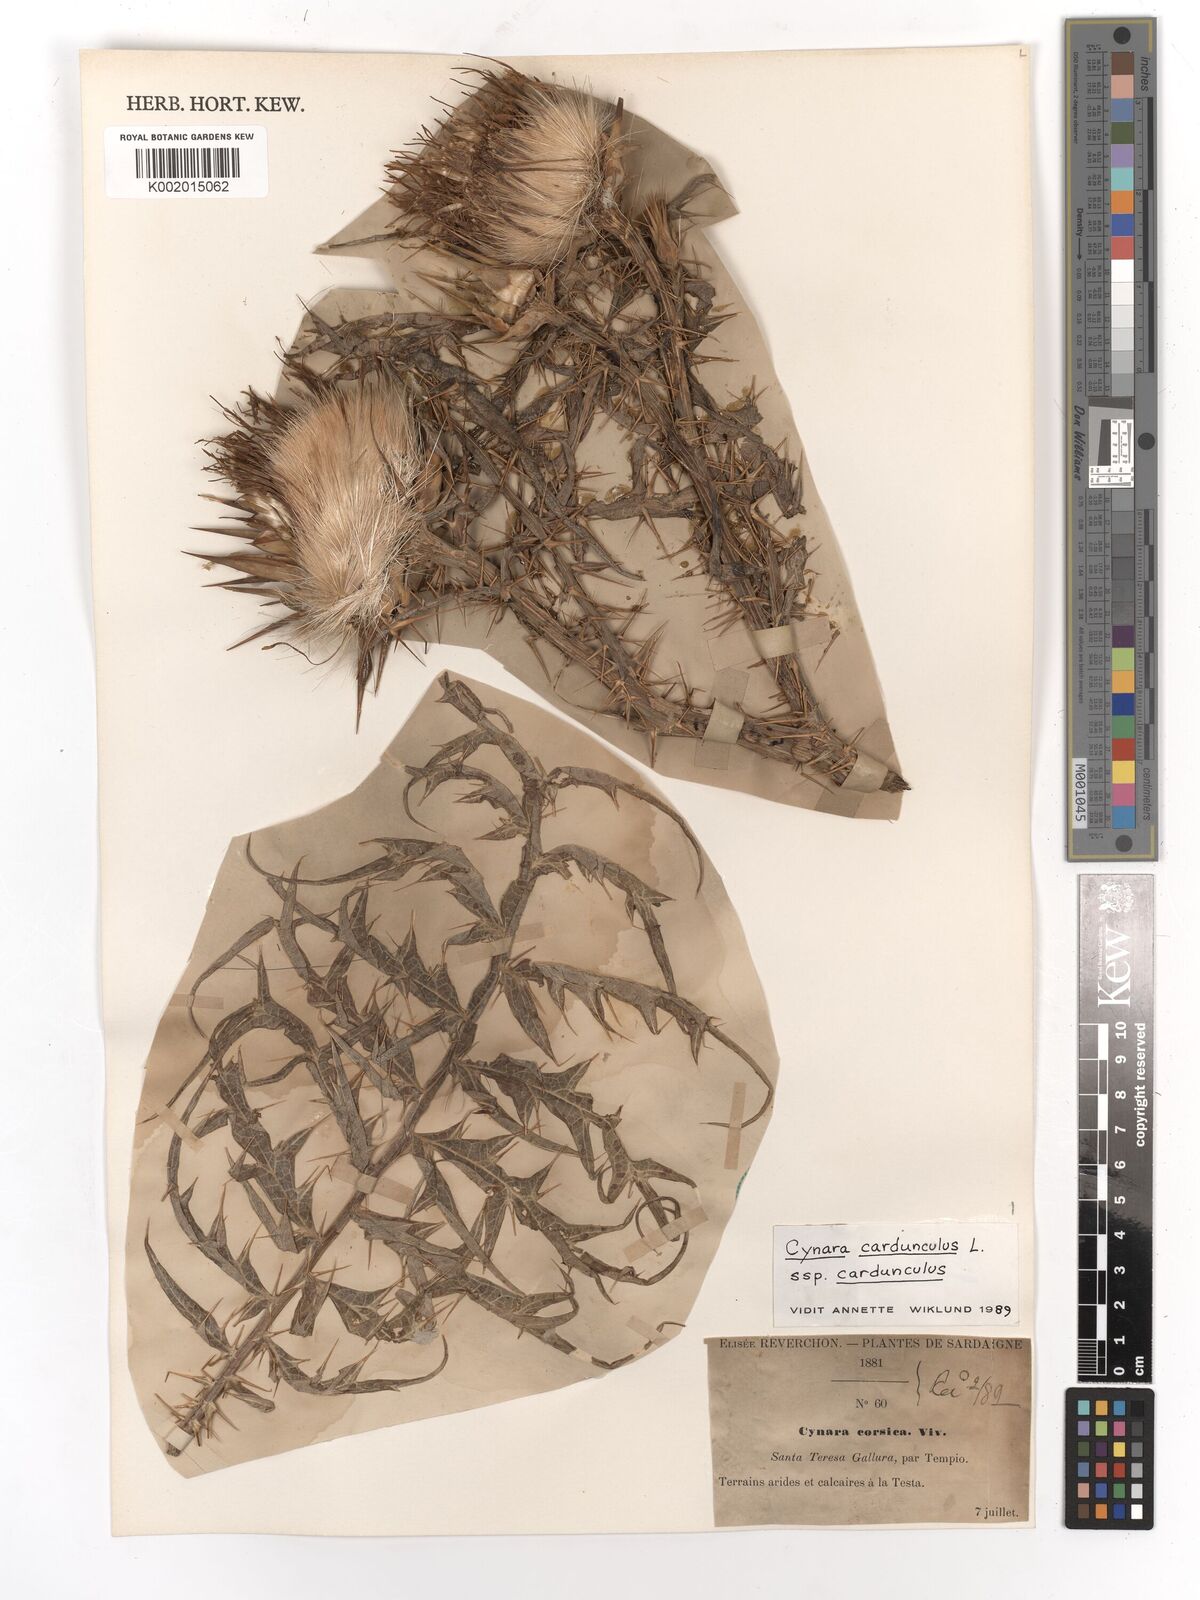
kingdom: Plantae
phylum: Tracheophyta
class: Magnoliopsida
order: Asterales
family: Asteraceae
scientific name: Asteraceae
